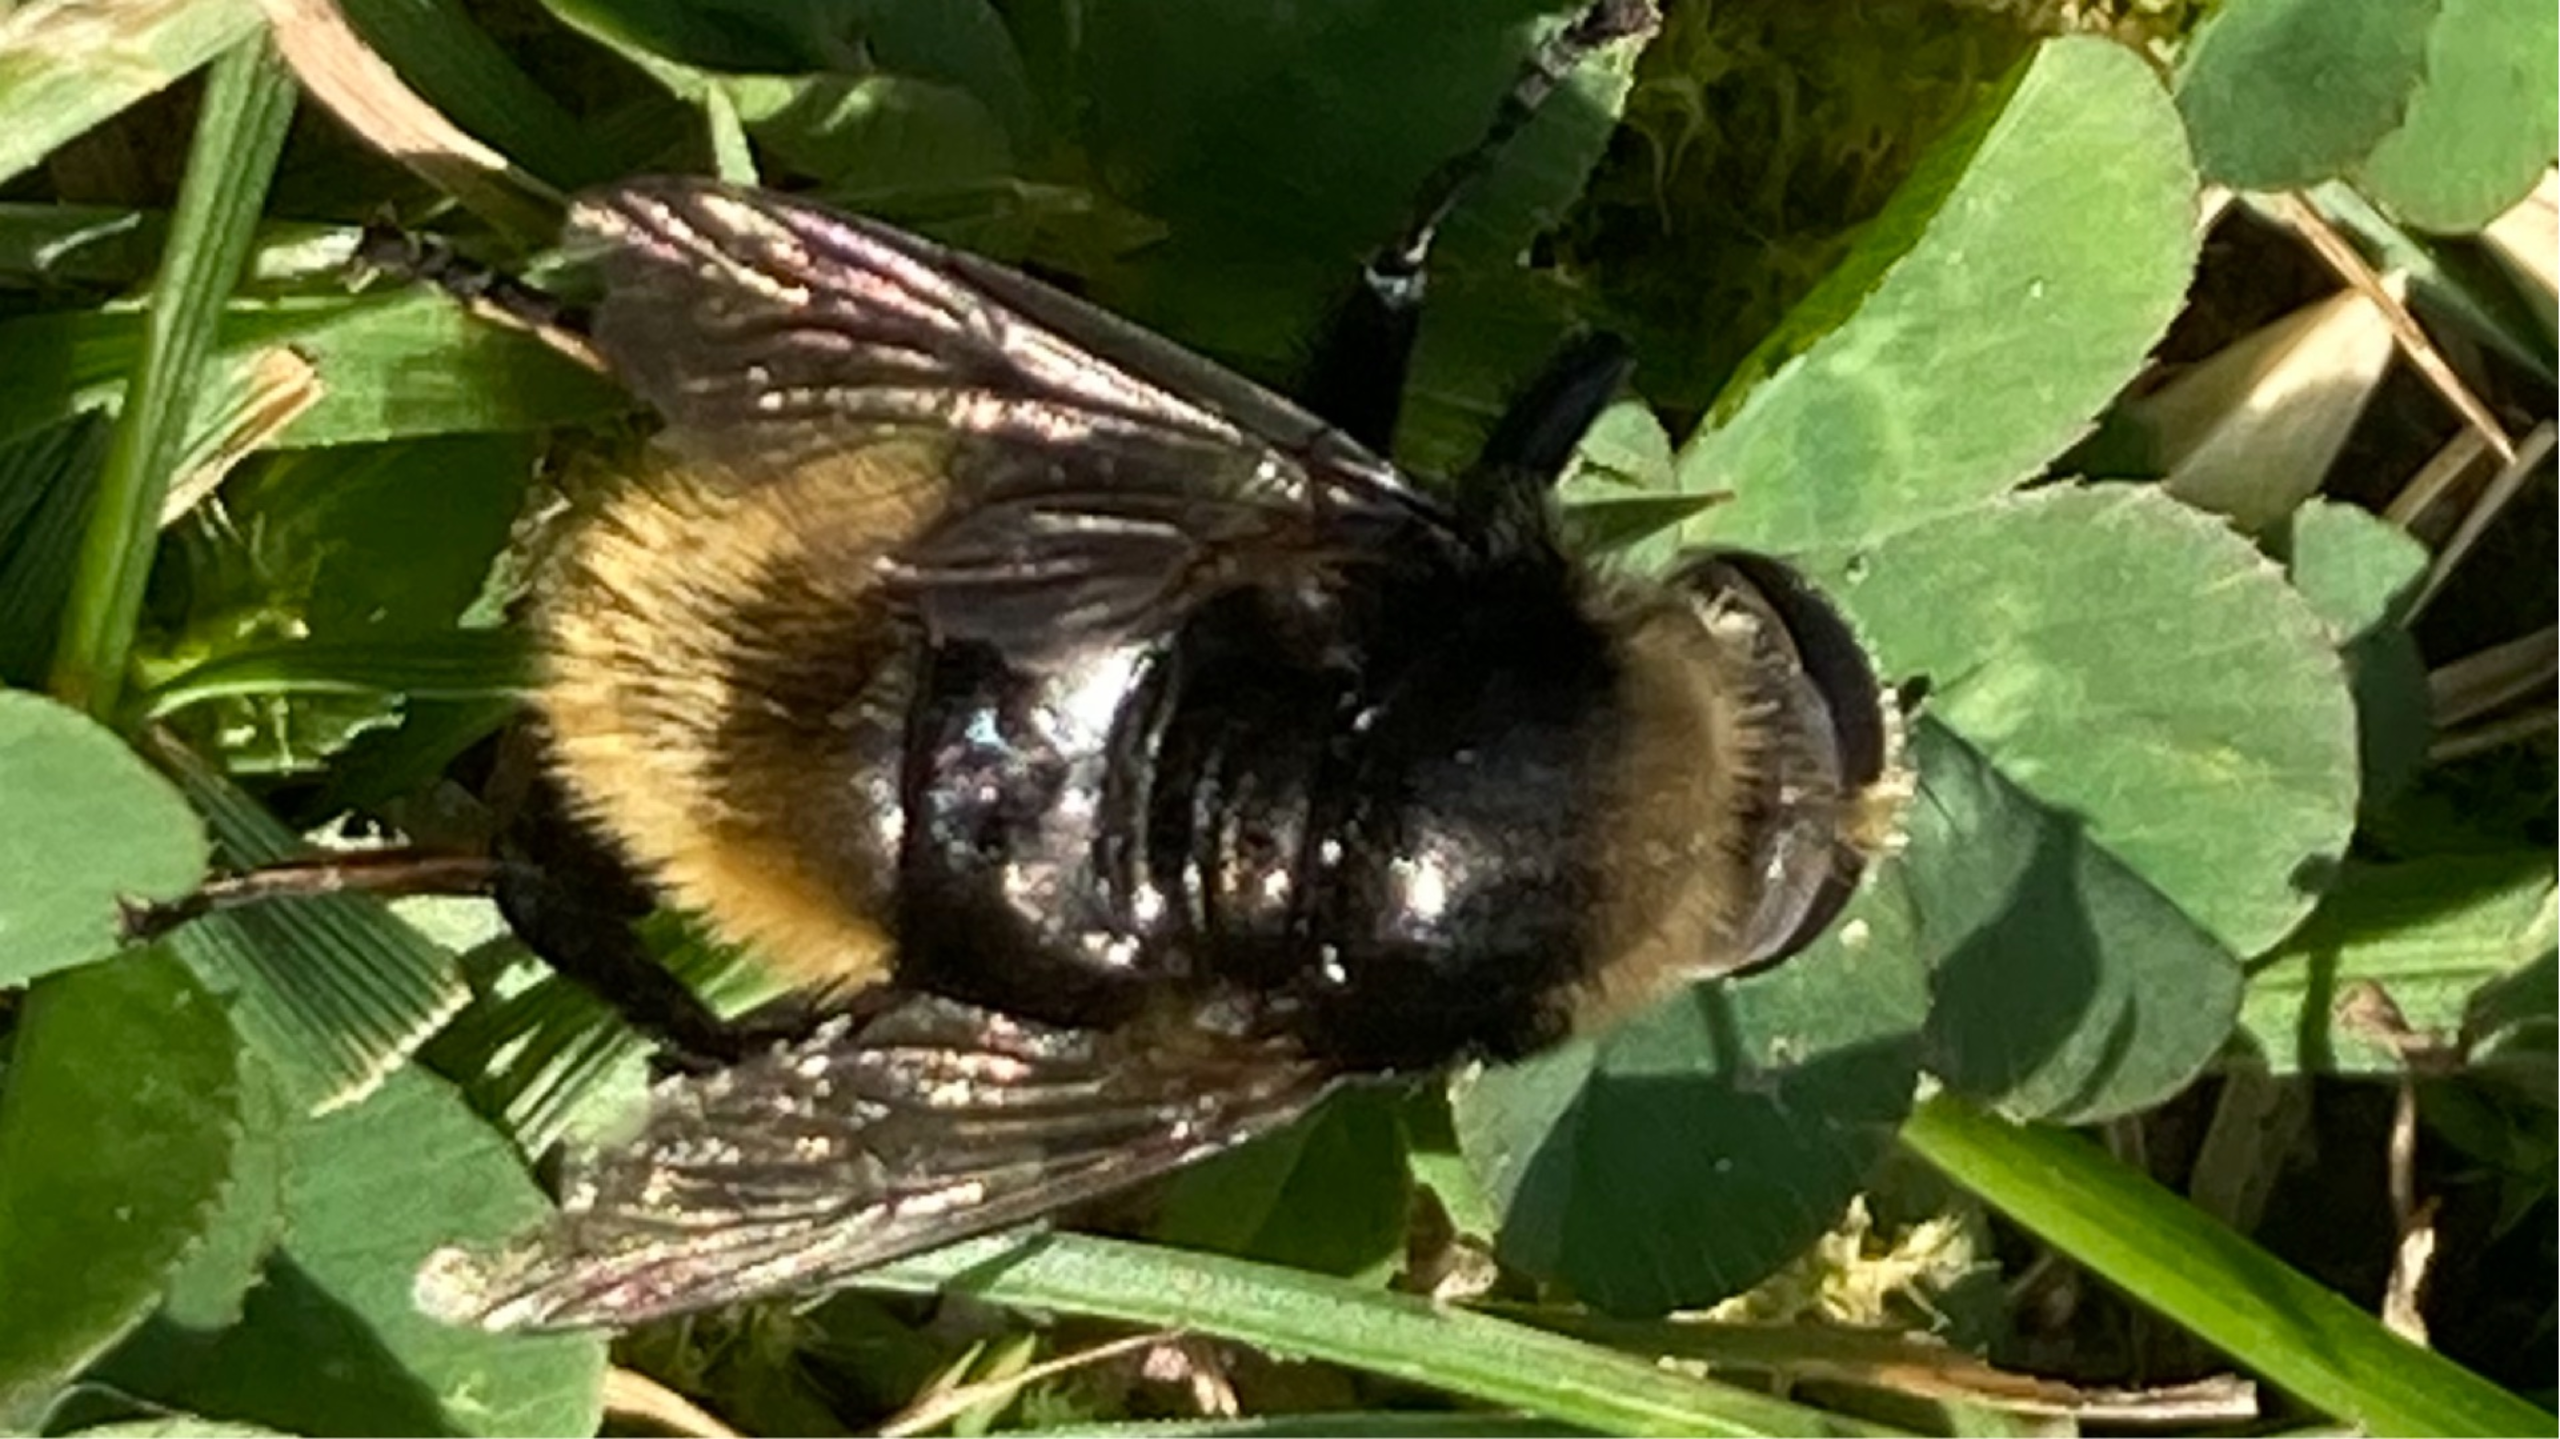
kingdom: Animalia
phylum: Arthropoda
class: Insecta
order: Diptera
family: Syrphidae
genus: Merodon
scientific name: Merodon equestris
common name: Stor narcisflue
